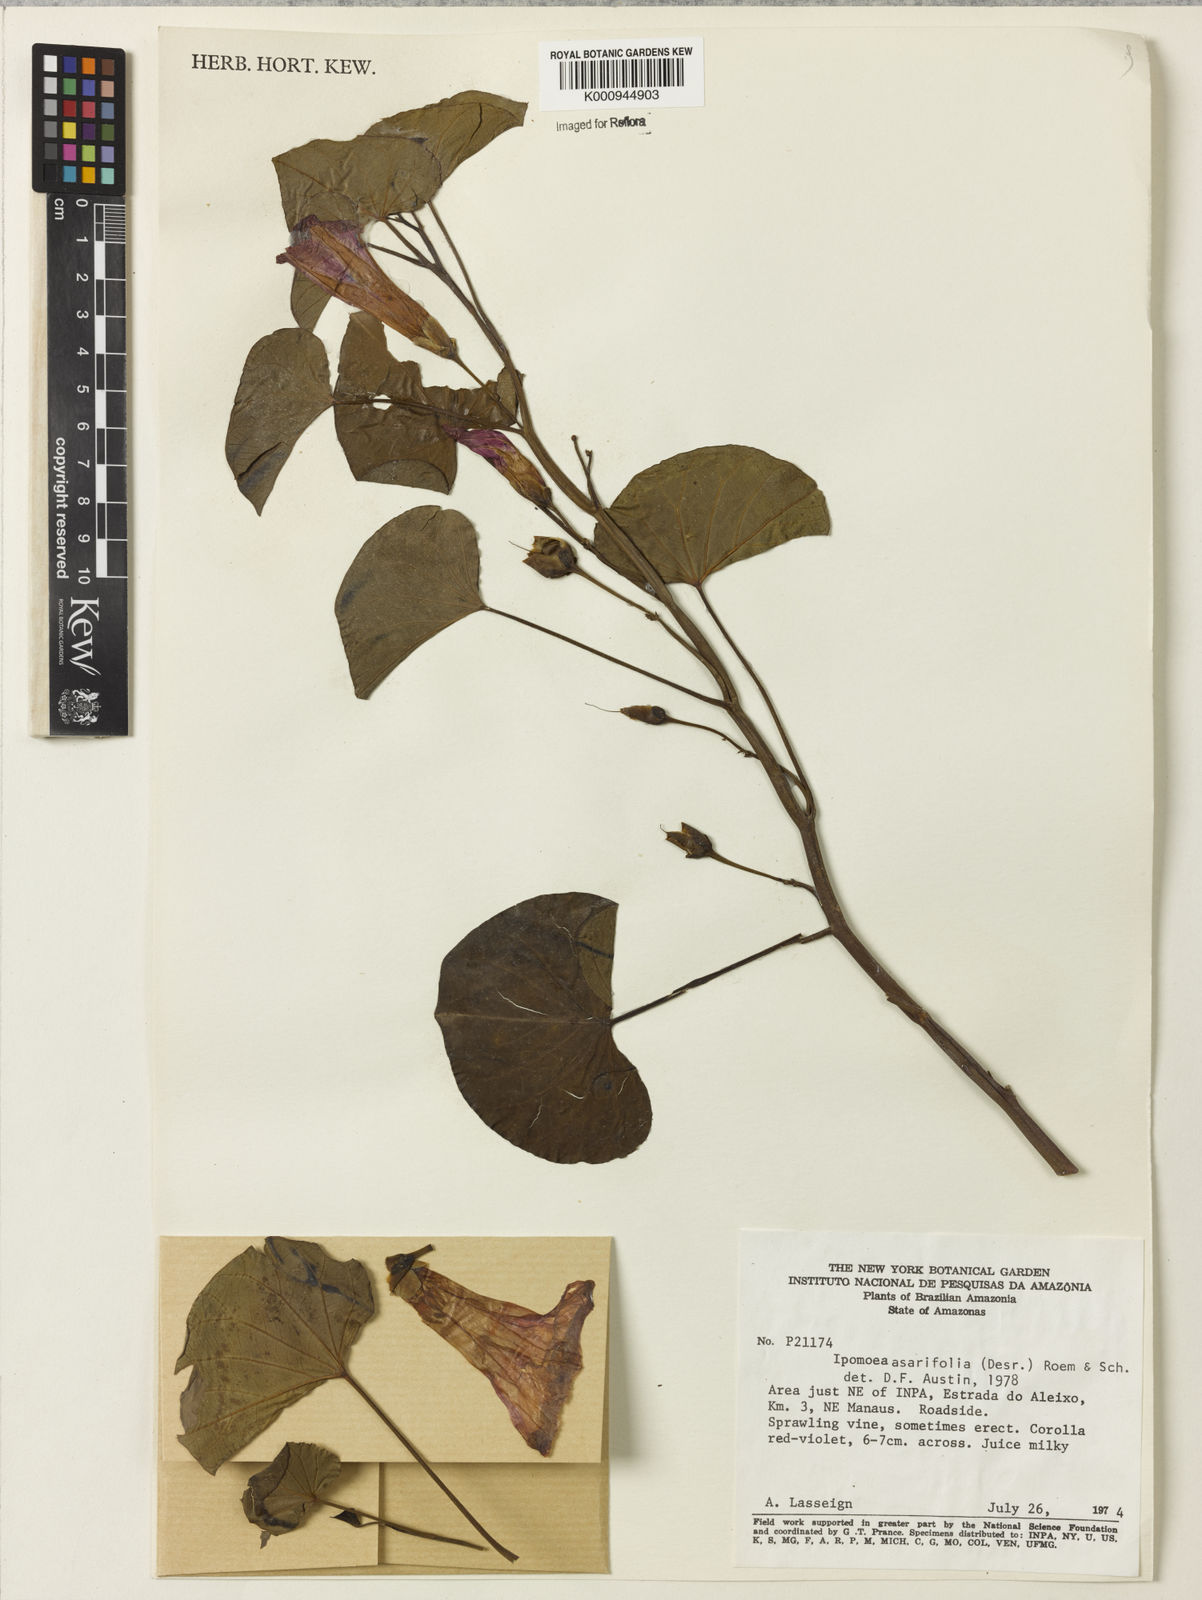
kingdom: Plantae
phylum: Tracheophyta
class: Magnoliopsida
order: Solanales
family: Convolvulaceae
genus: Ipomoea
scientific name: Ipomoea asarifolia
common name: Ginger-leaf morning-glory
